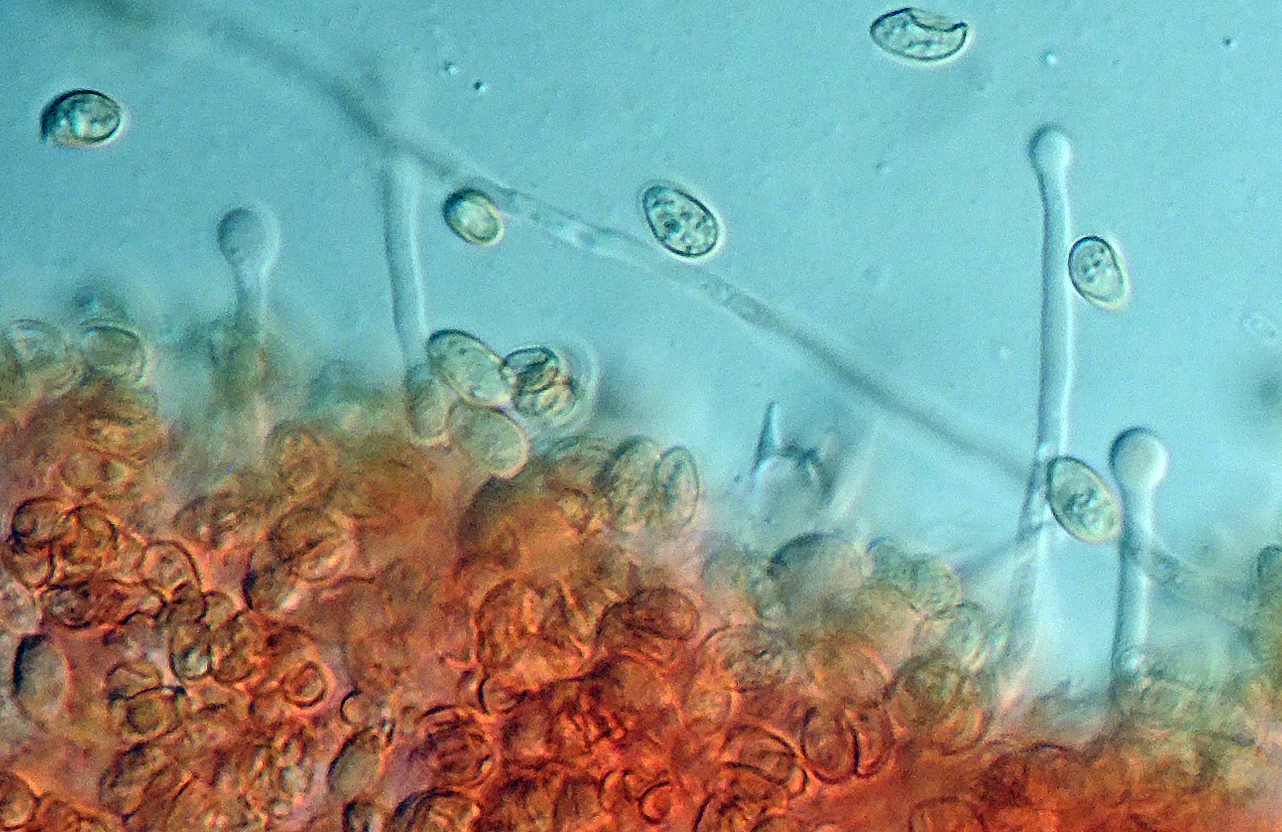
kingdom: Fungi
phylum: Basidiomycota
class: Agaricomycetes
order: Agaricales
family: Hymenogastraceae
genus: Galerina
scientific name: Galerina graminea
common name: plæne-hjelmhat
